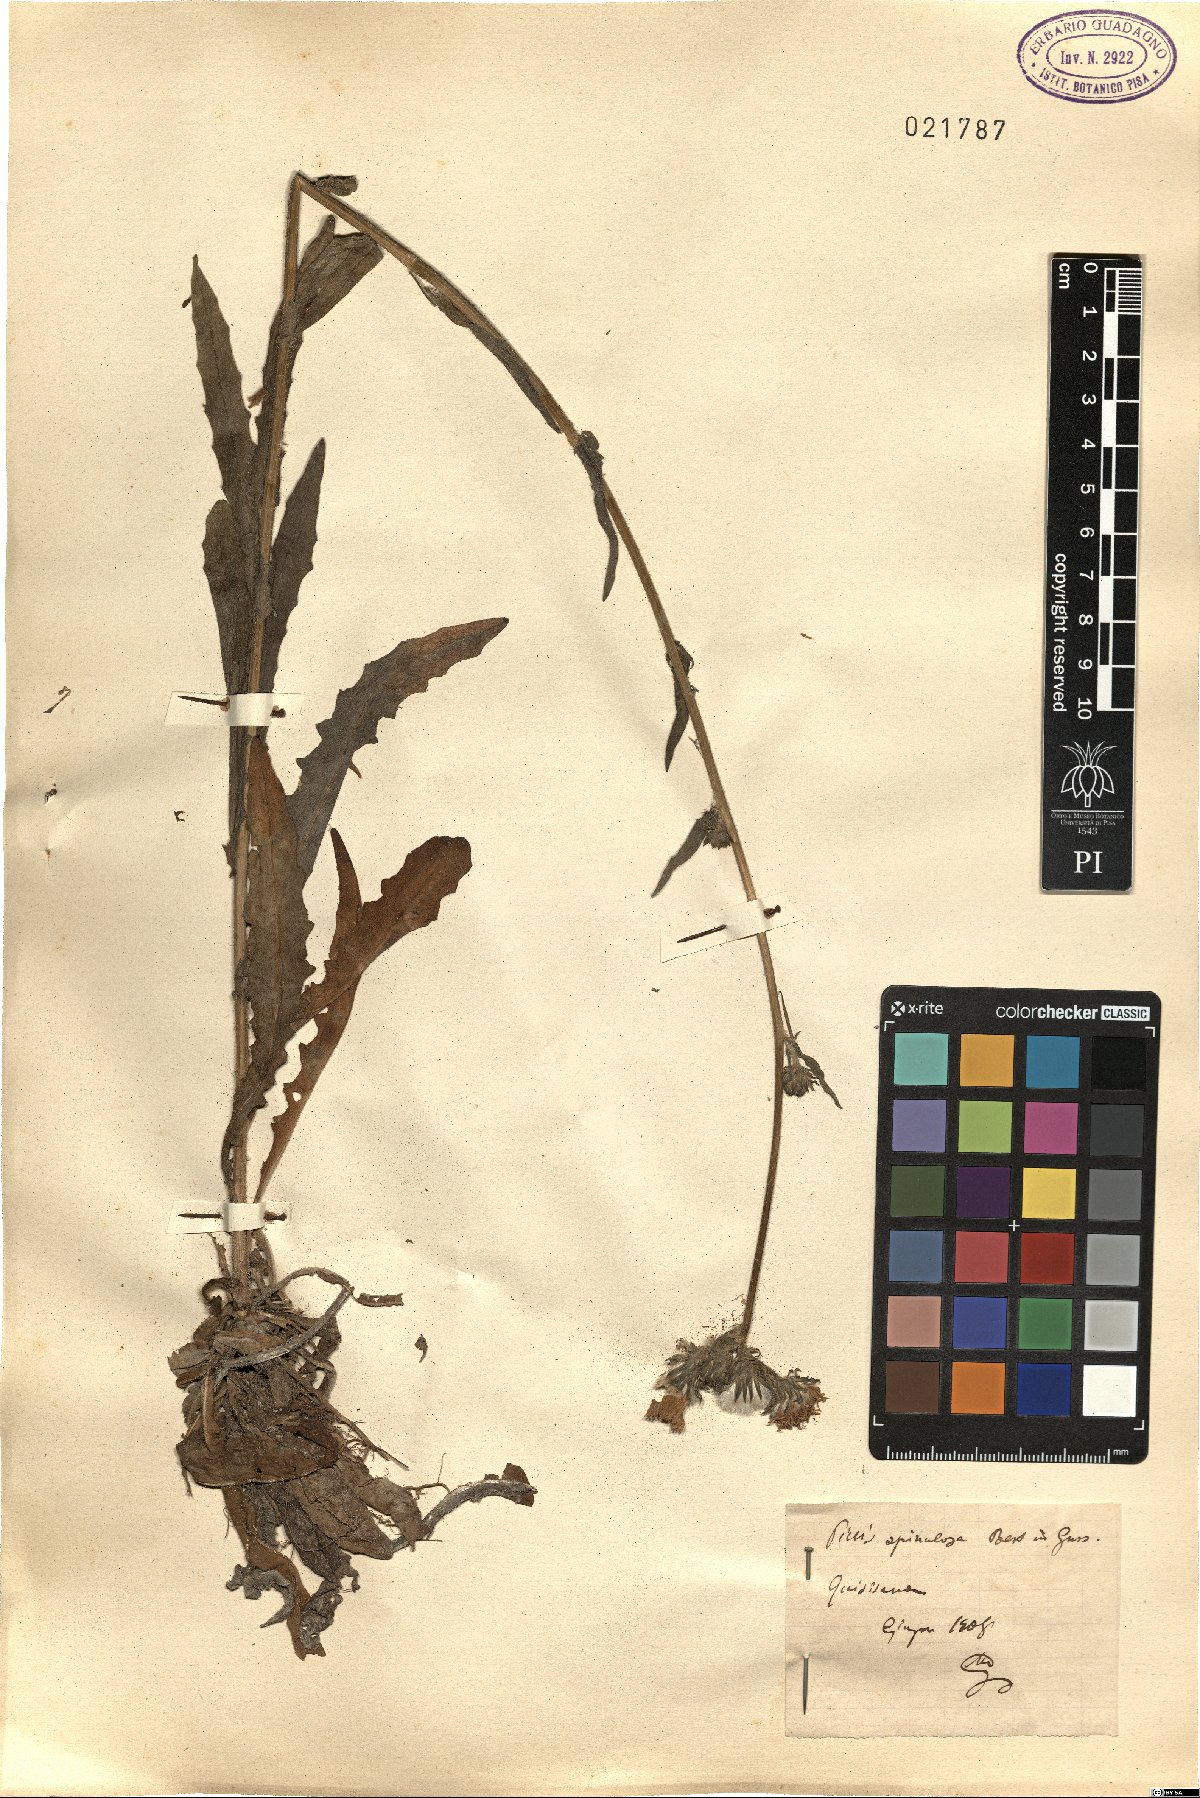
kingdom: Plantae
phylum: Tracheophyta
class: Magnoliopsida
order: Asterales
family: Asteraceae
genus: Picris
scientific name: Picris hieracioides
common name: Hawkweed oxtongue
